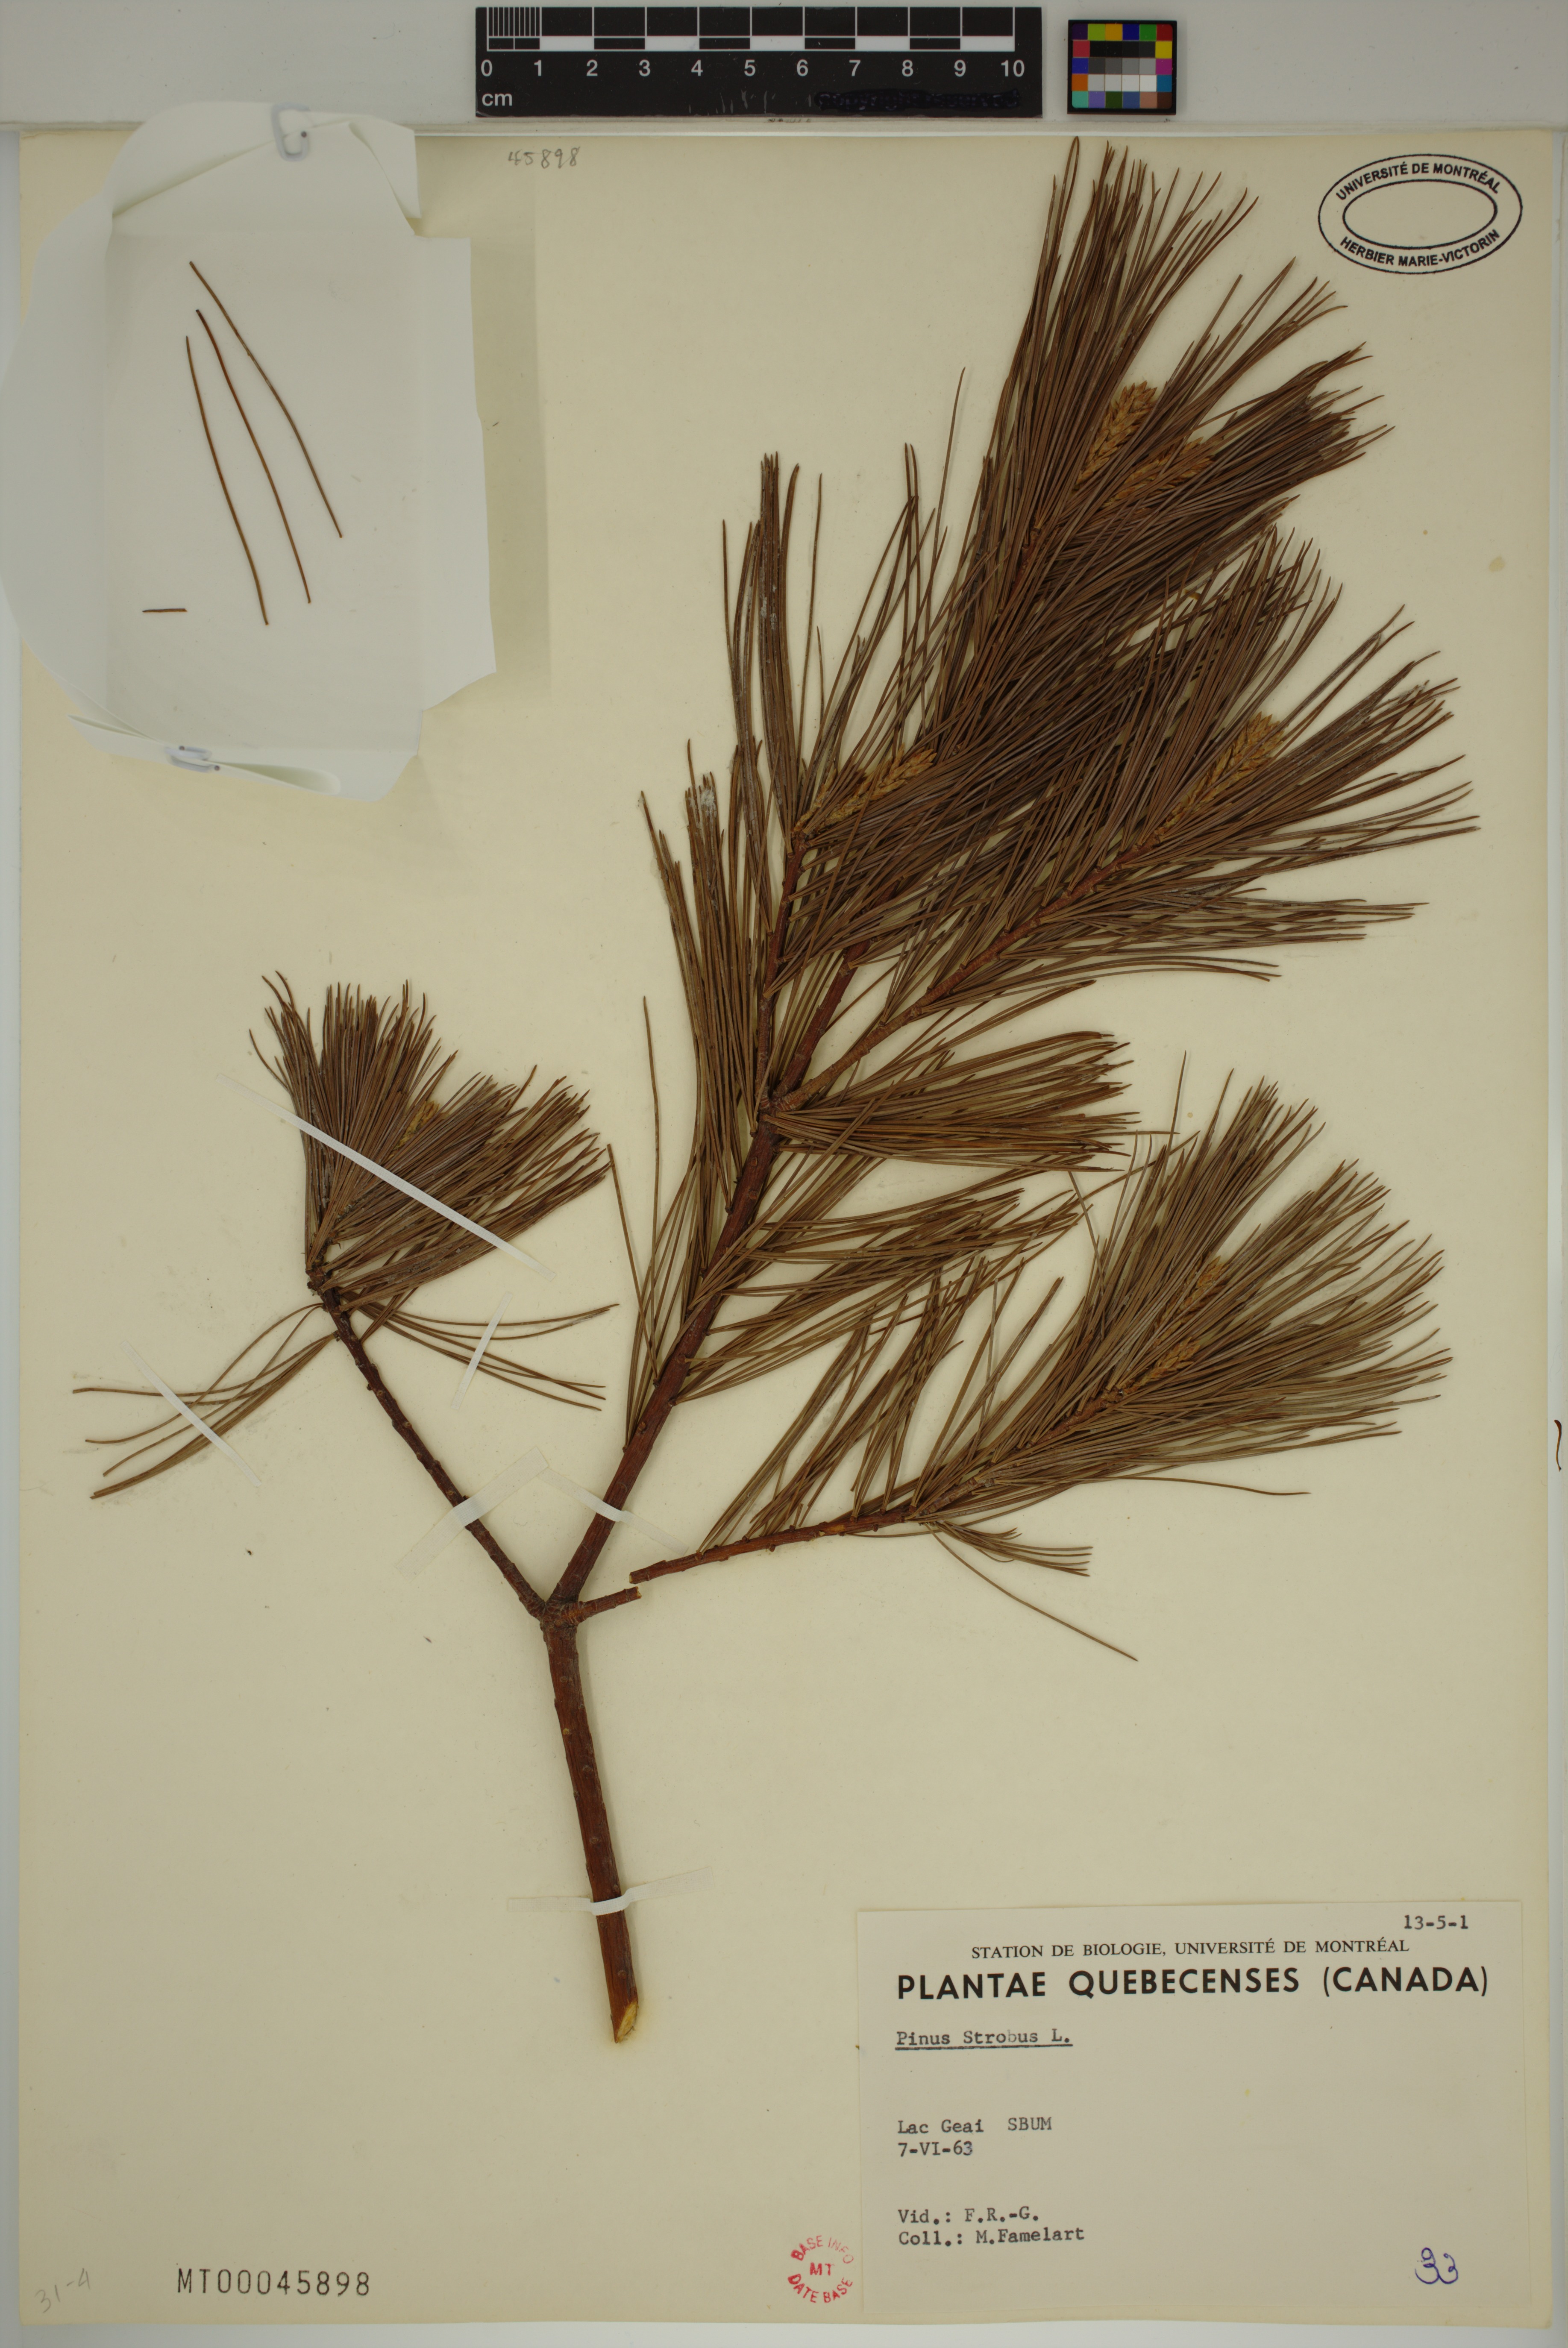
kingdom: Plantae
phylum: Tracheophyta
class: Pinopsida
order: Pinales
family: Pinaceae
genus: Pinus
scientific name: Pinus strobus
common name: Weymouth pine
